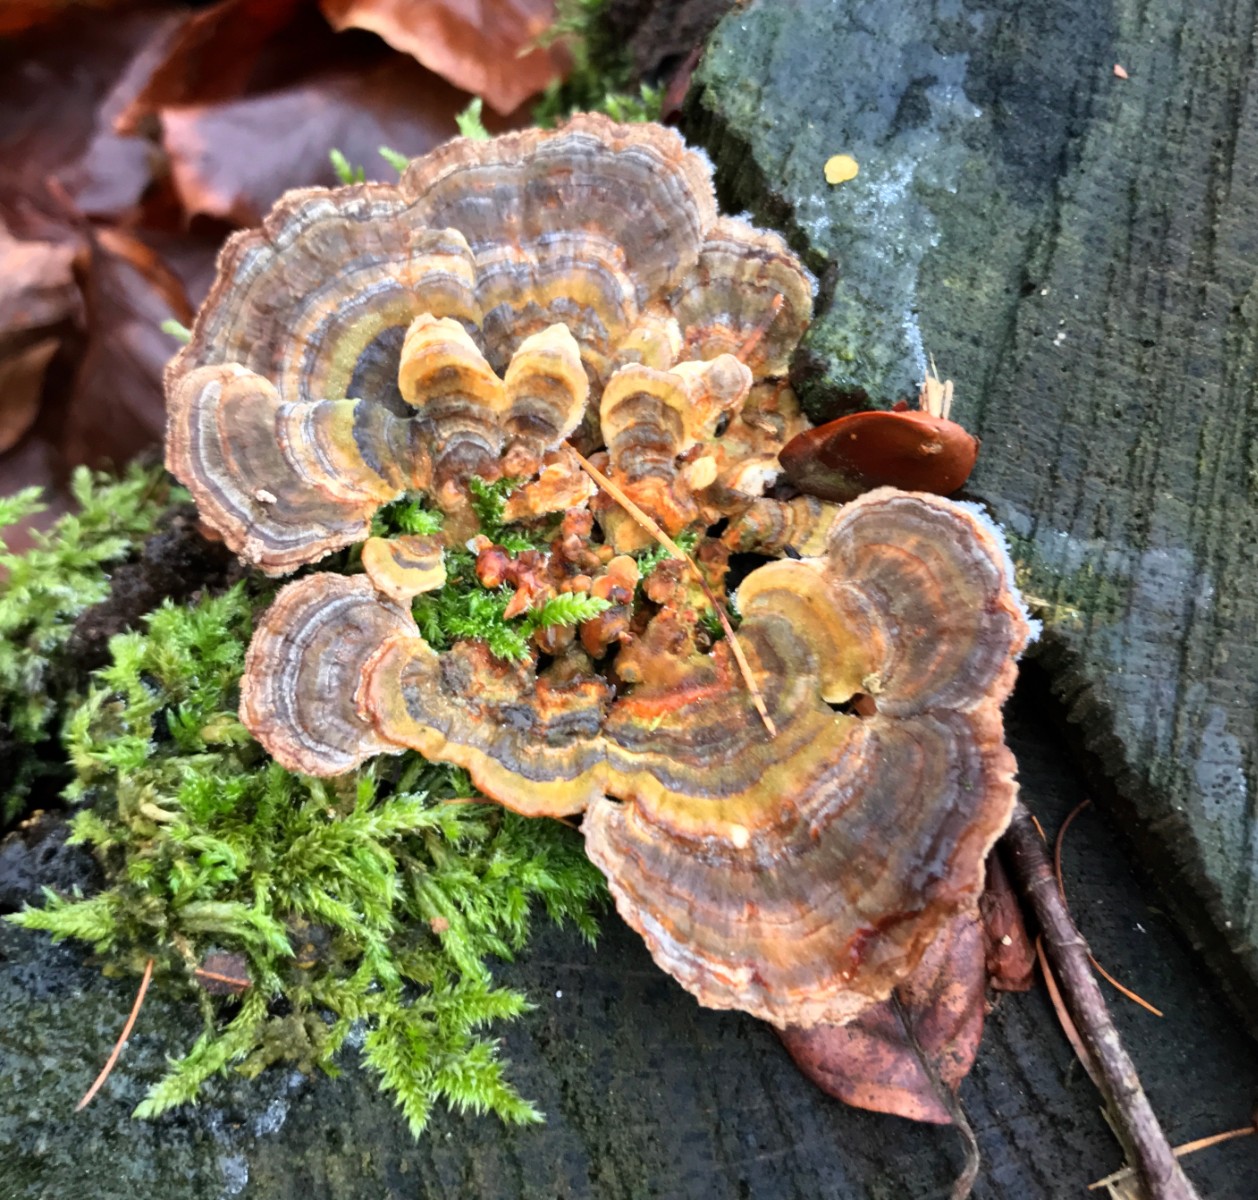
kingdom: Fungi
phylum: Basidiomycota
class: Agaricomycetes
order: Polyporales
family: Polyporaceae
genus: Trametes
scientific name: Trametes versicolor
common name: broget læderporesvamp
